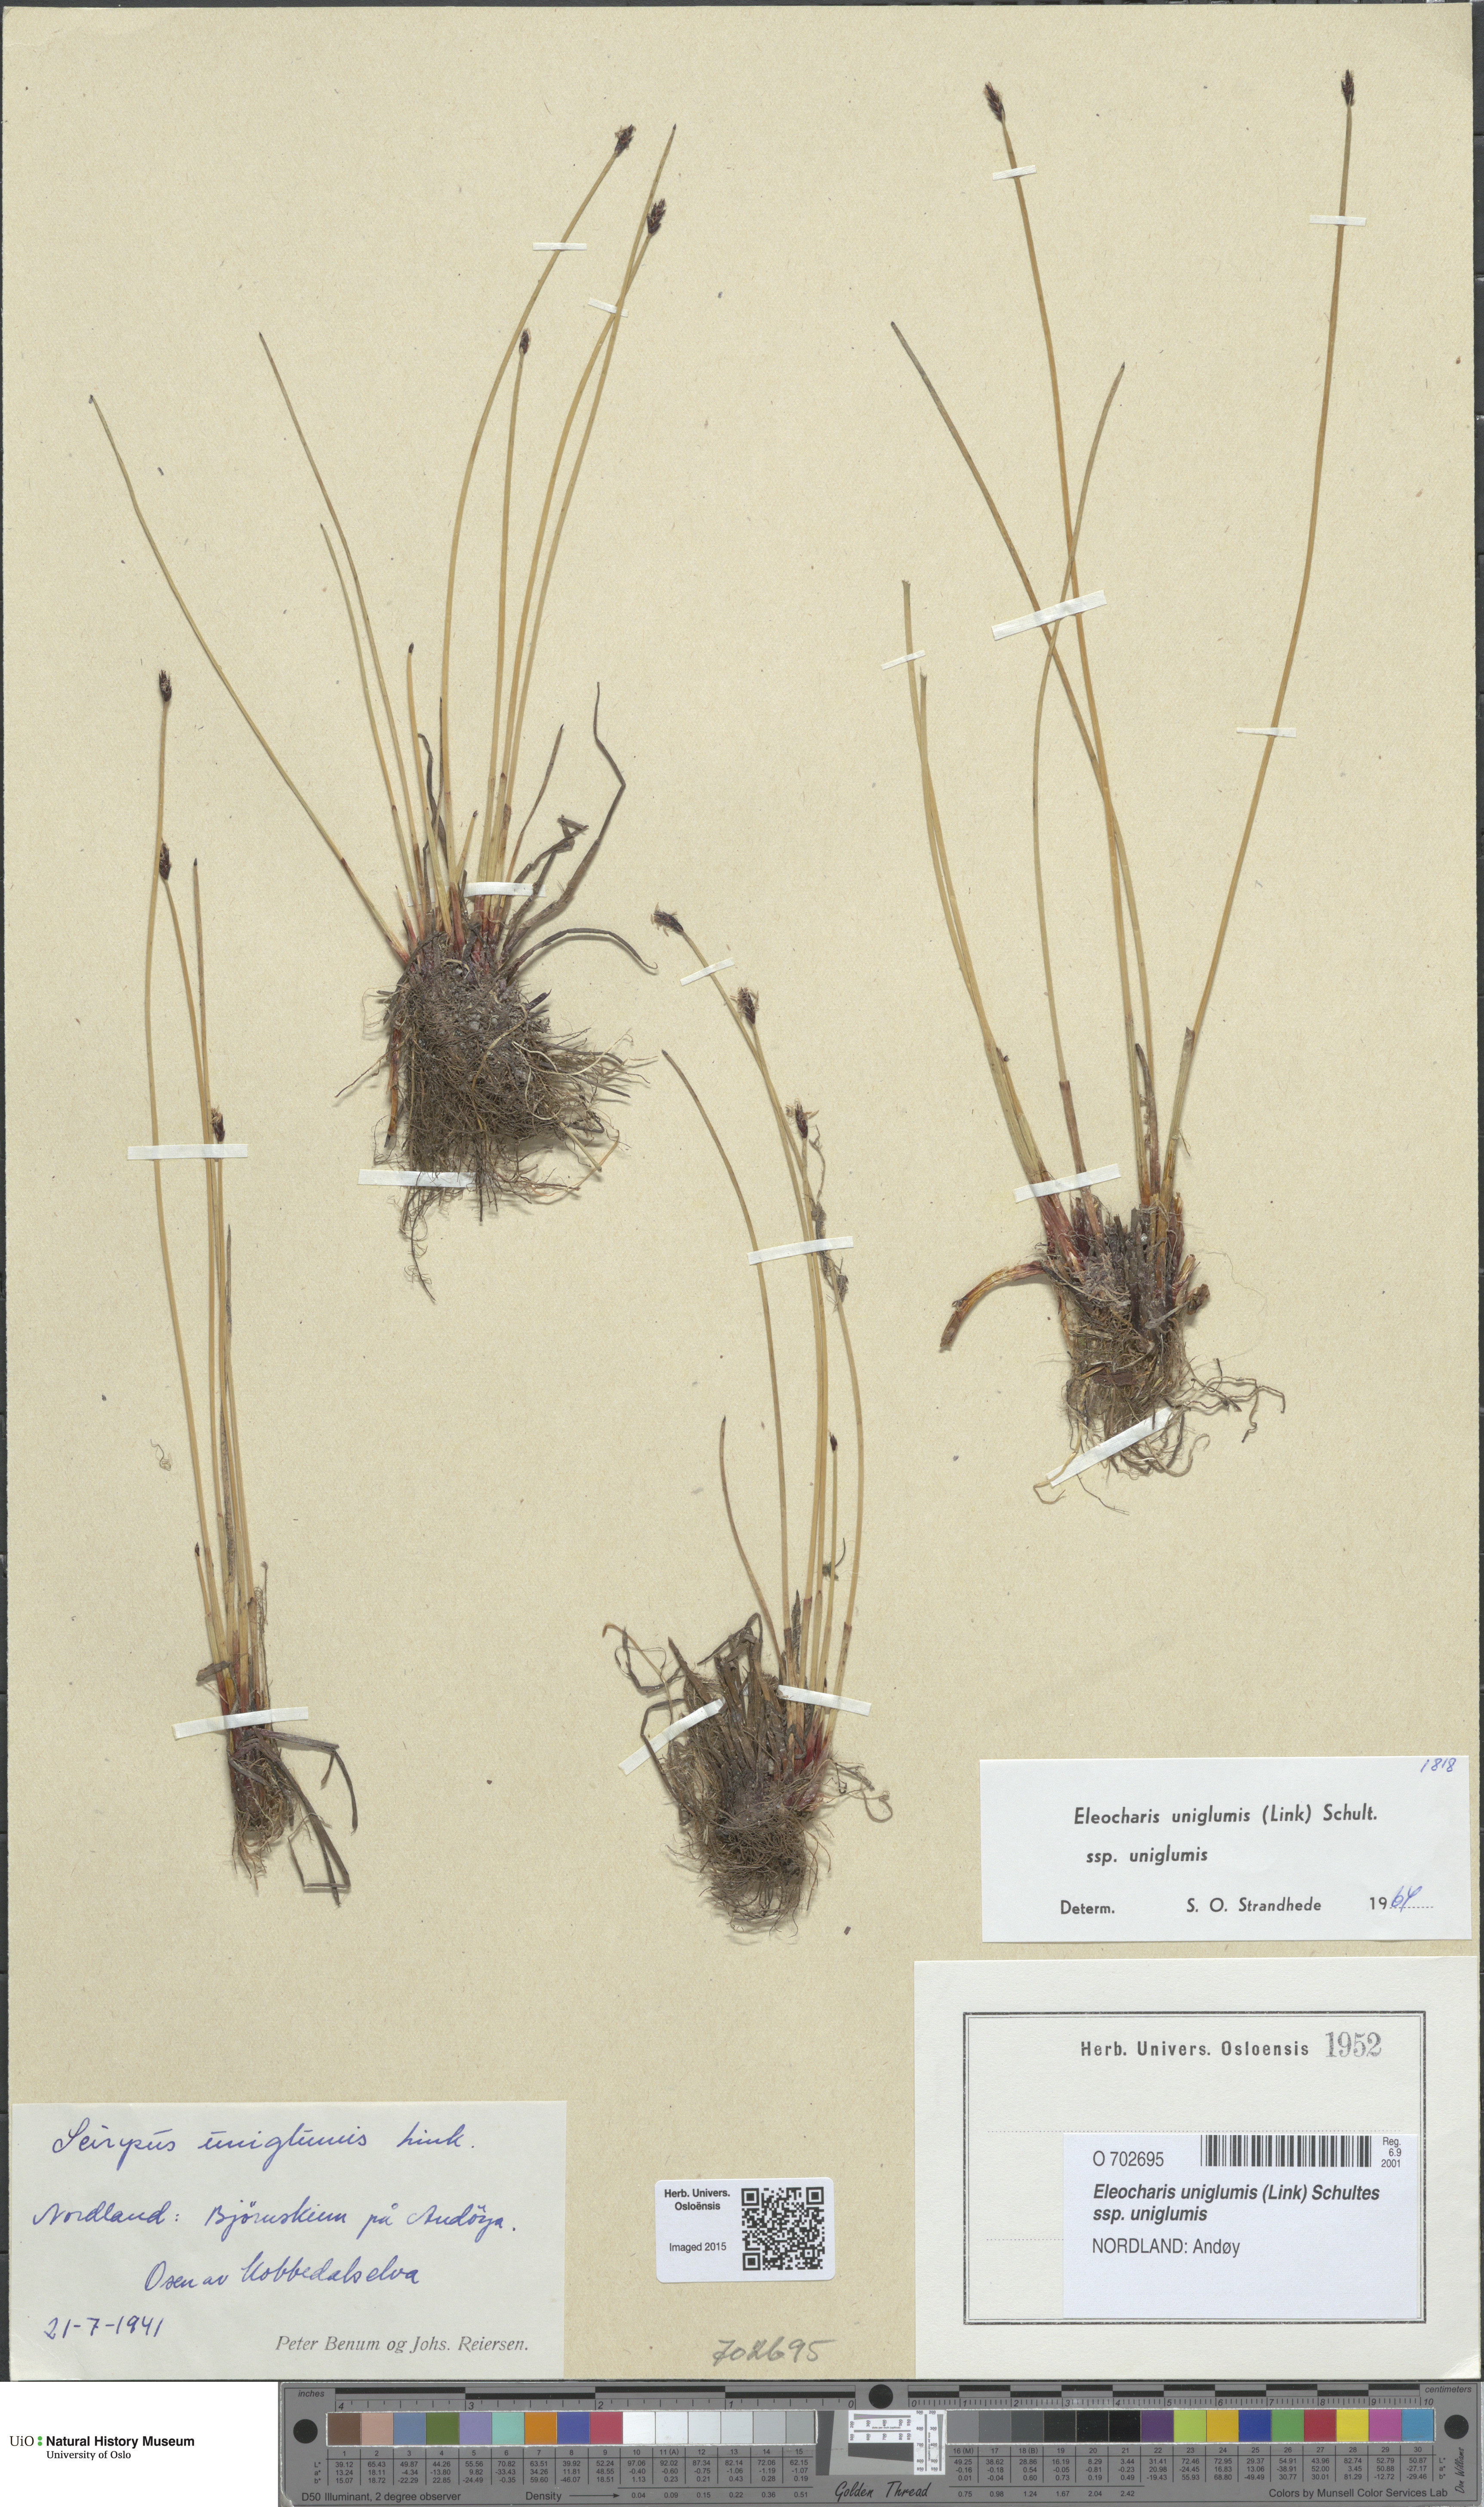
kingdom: Plantae
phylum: Tracheophyta
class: Liliopsida
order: Poales
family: Cyperaceae
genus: Eleocharis
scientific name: Eleocharis uniglumis
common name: Slender spike-rush
